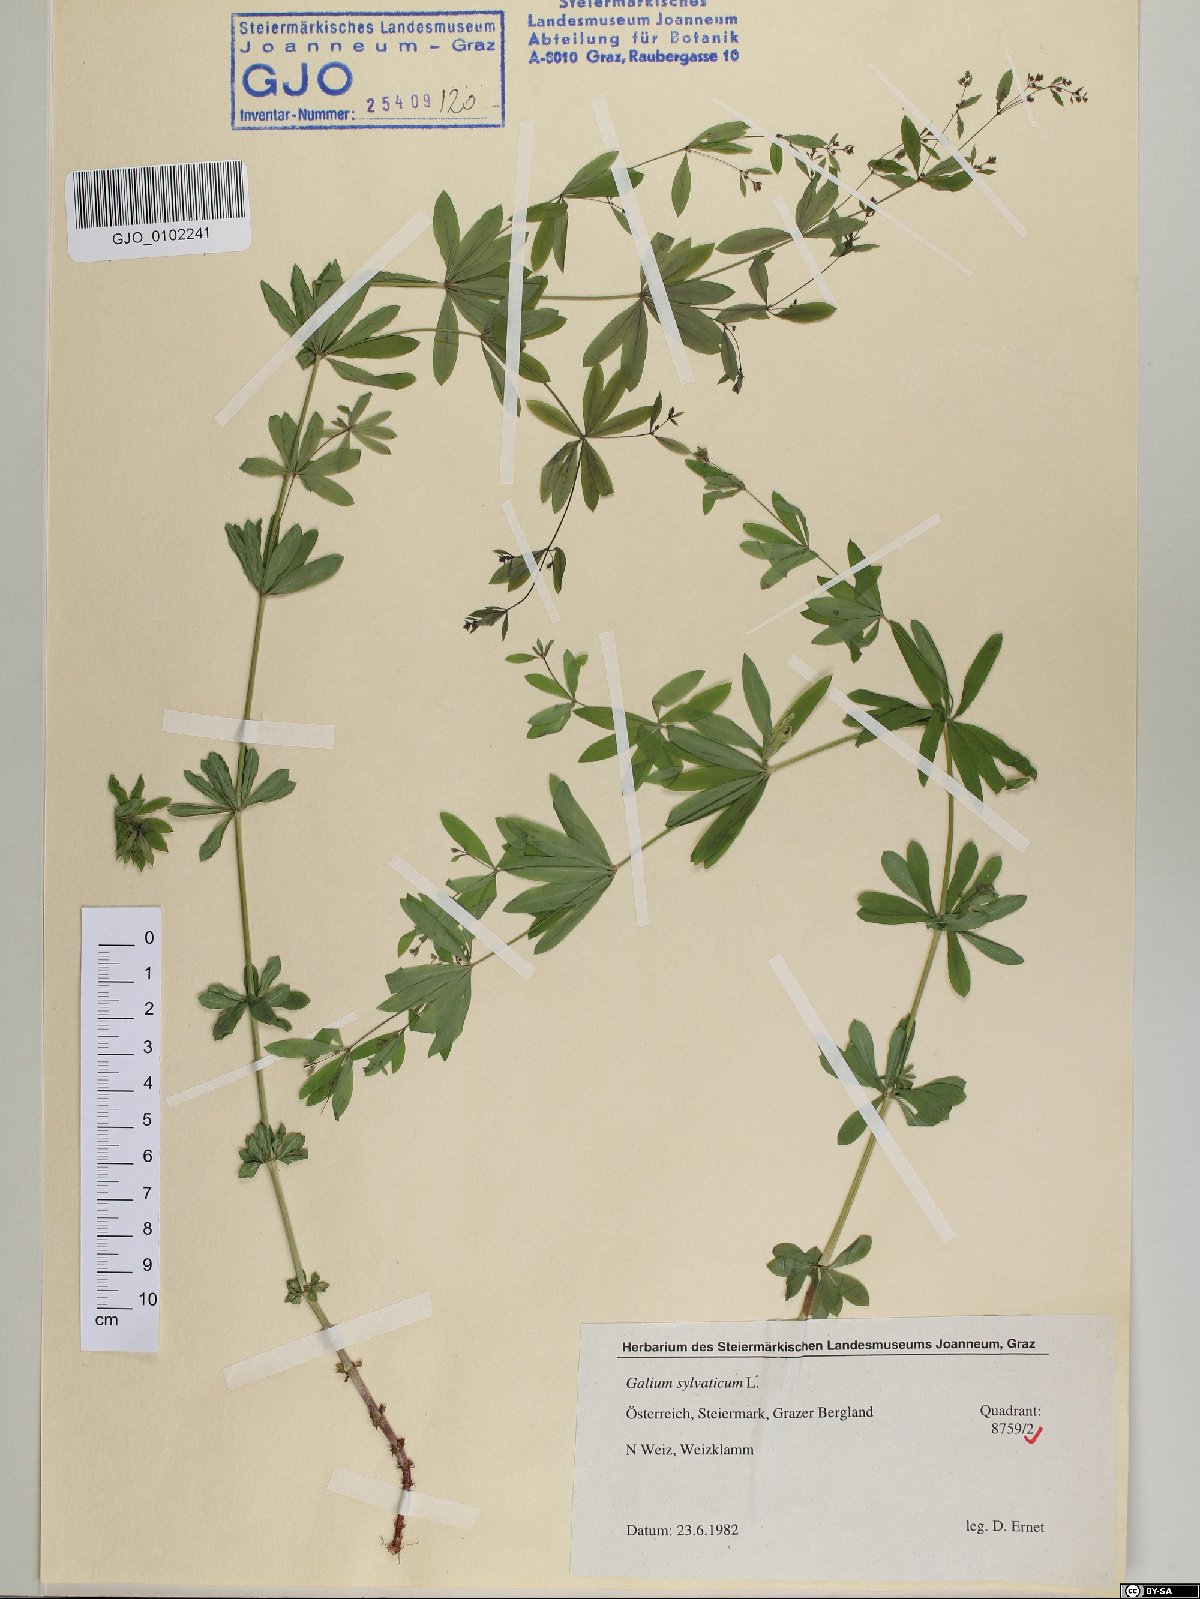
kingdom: Plantae
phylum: Tracheophyta
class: Magnoliopsida
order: Gentianales
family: Rubiaceae
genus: Galium
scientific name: Galium sylvaticum
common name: Wood bedstraw
